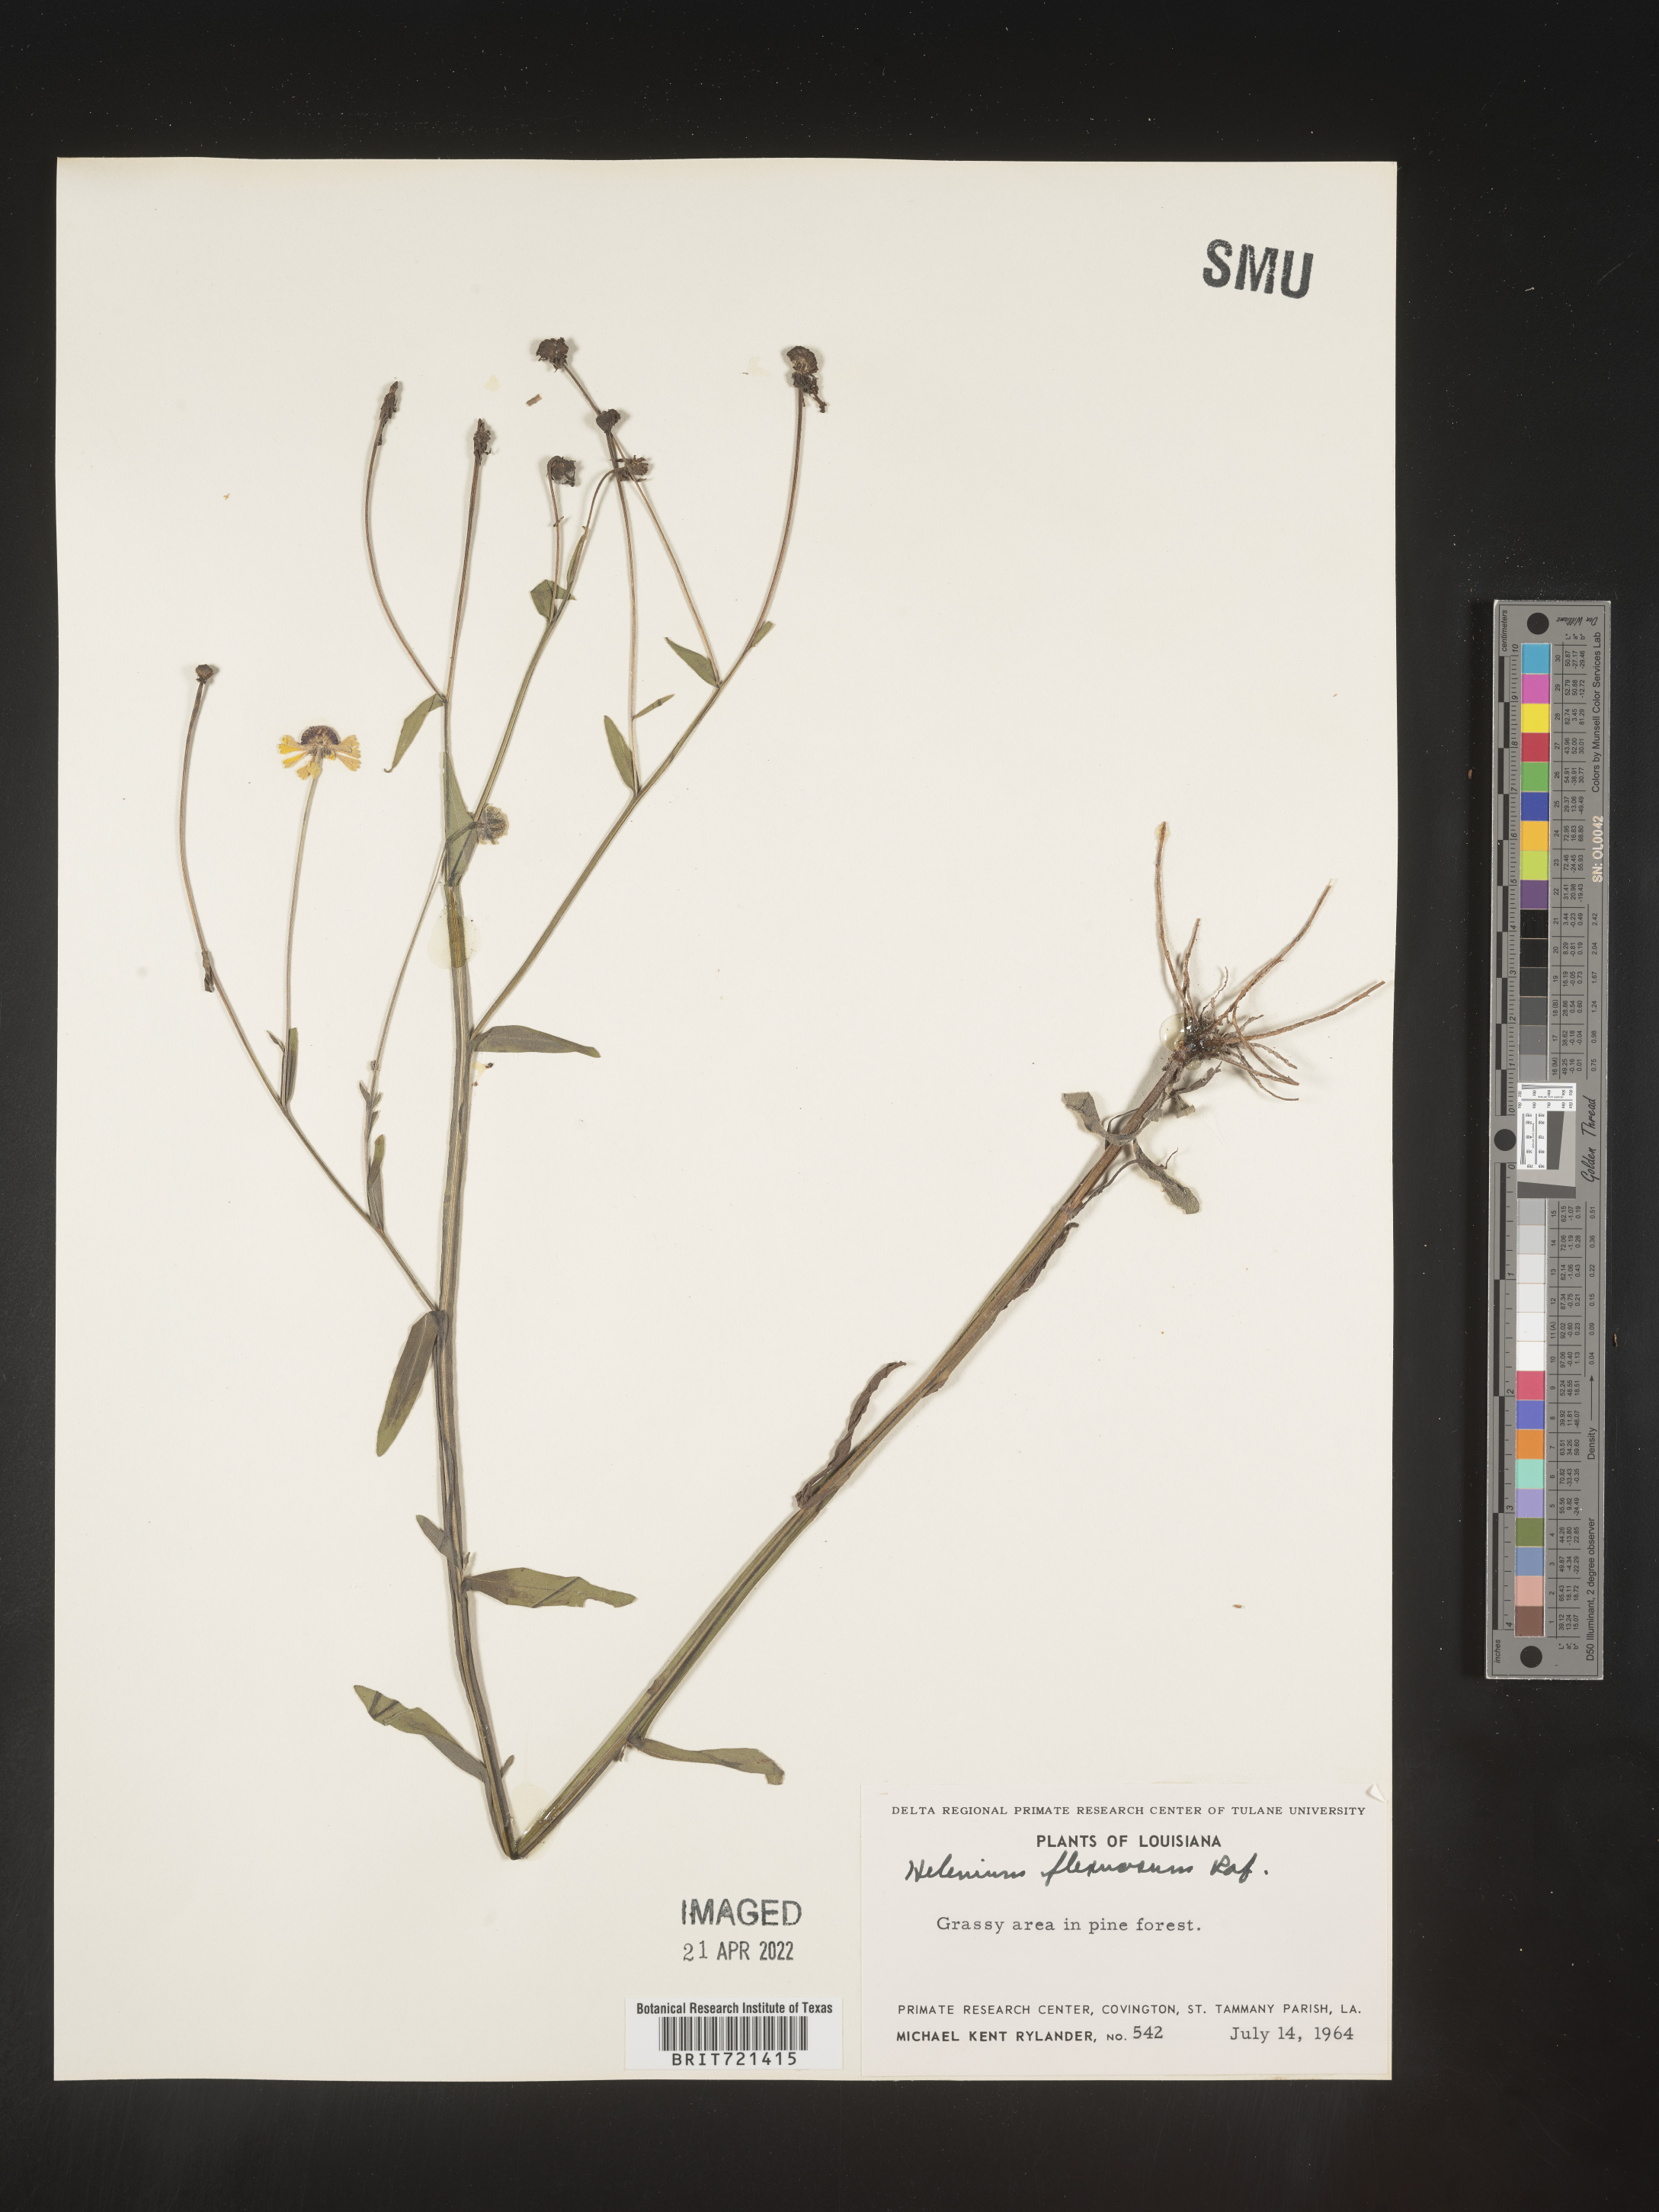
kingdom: Plantae
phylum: Tracheophyta
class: Magnoliopsida
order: Asterales
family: Asteraceae
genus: Helenium
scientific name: Helenium flexuosum
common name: Naked-flowered sneezeweed
